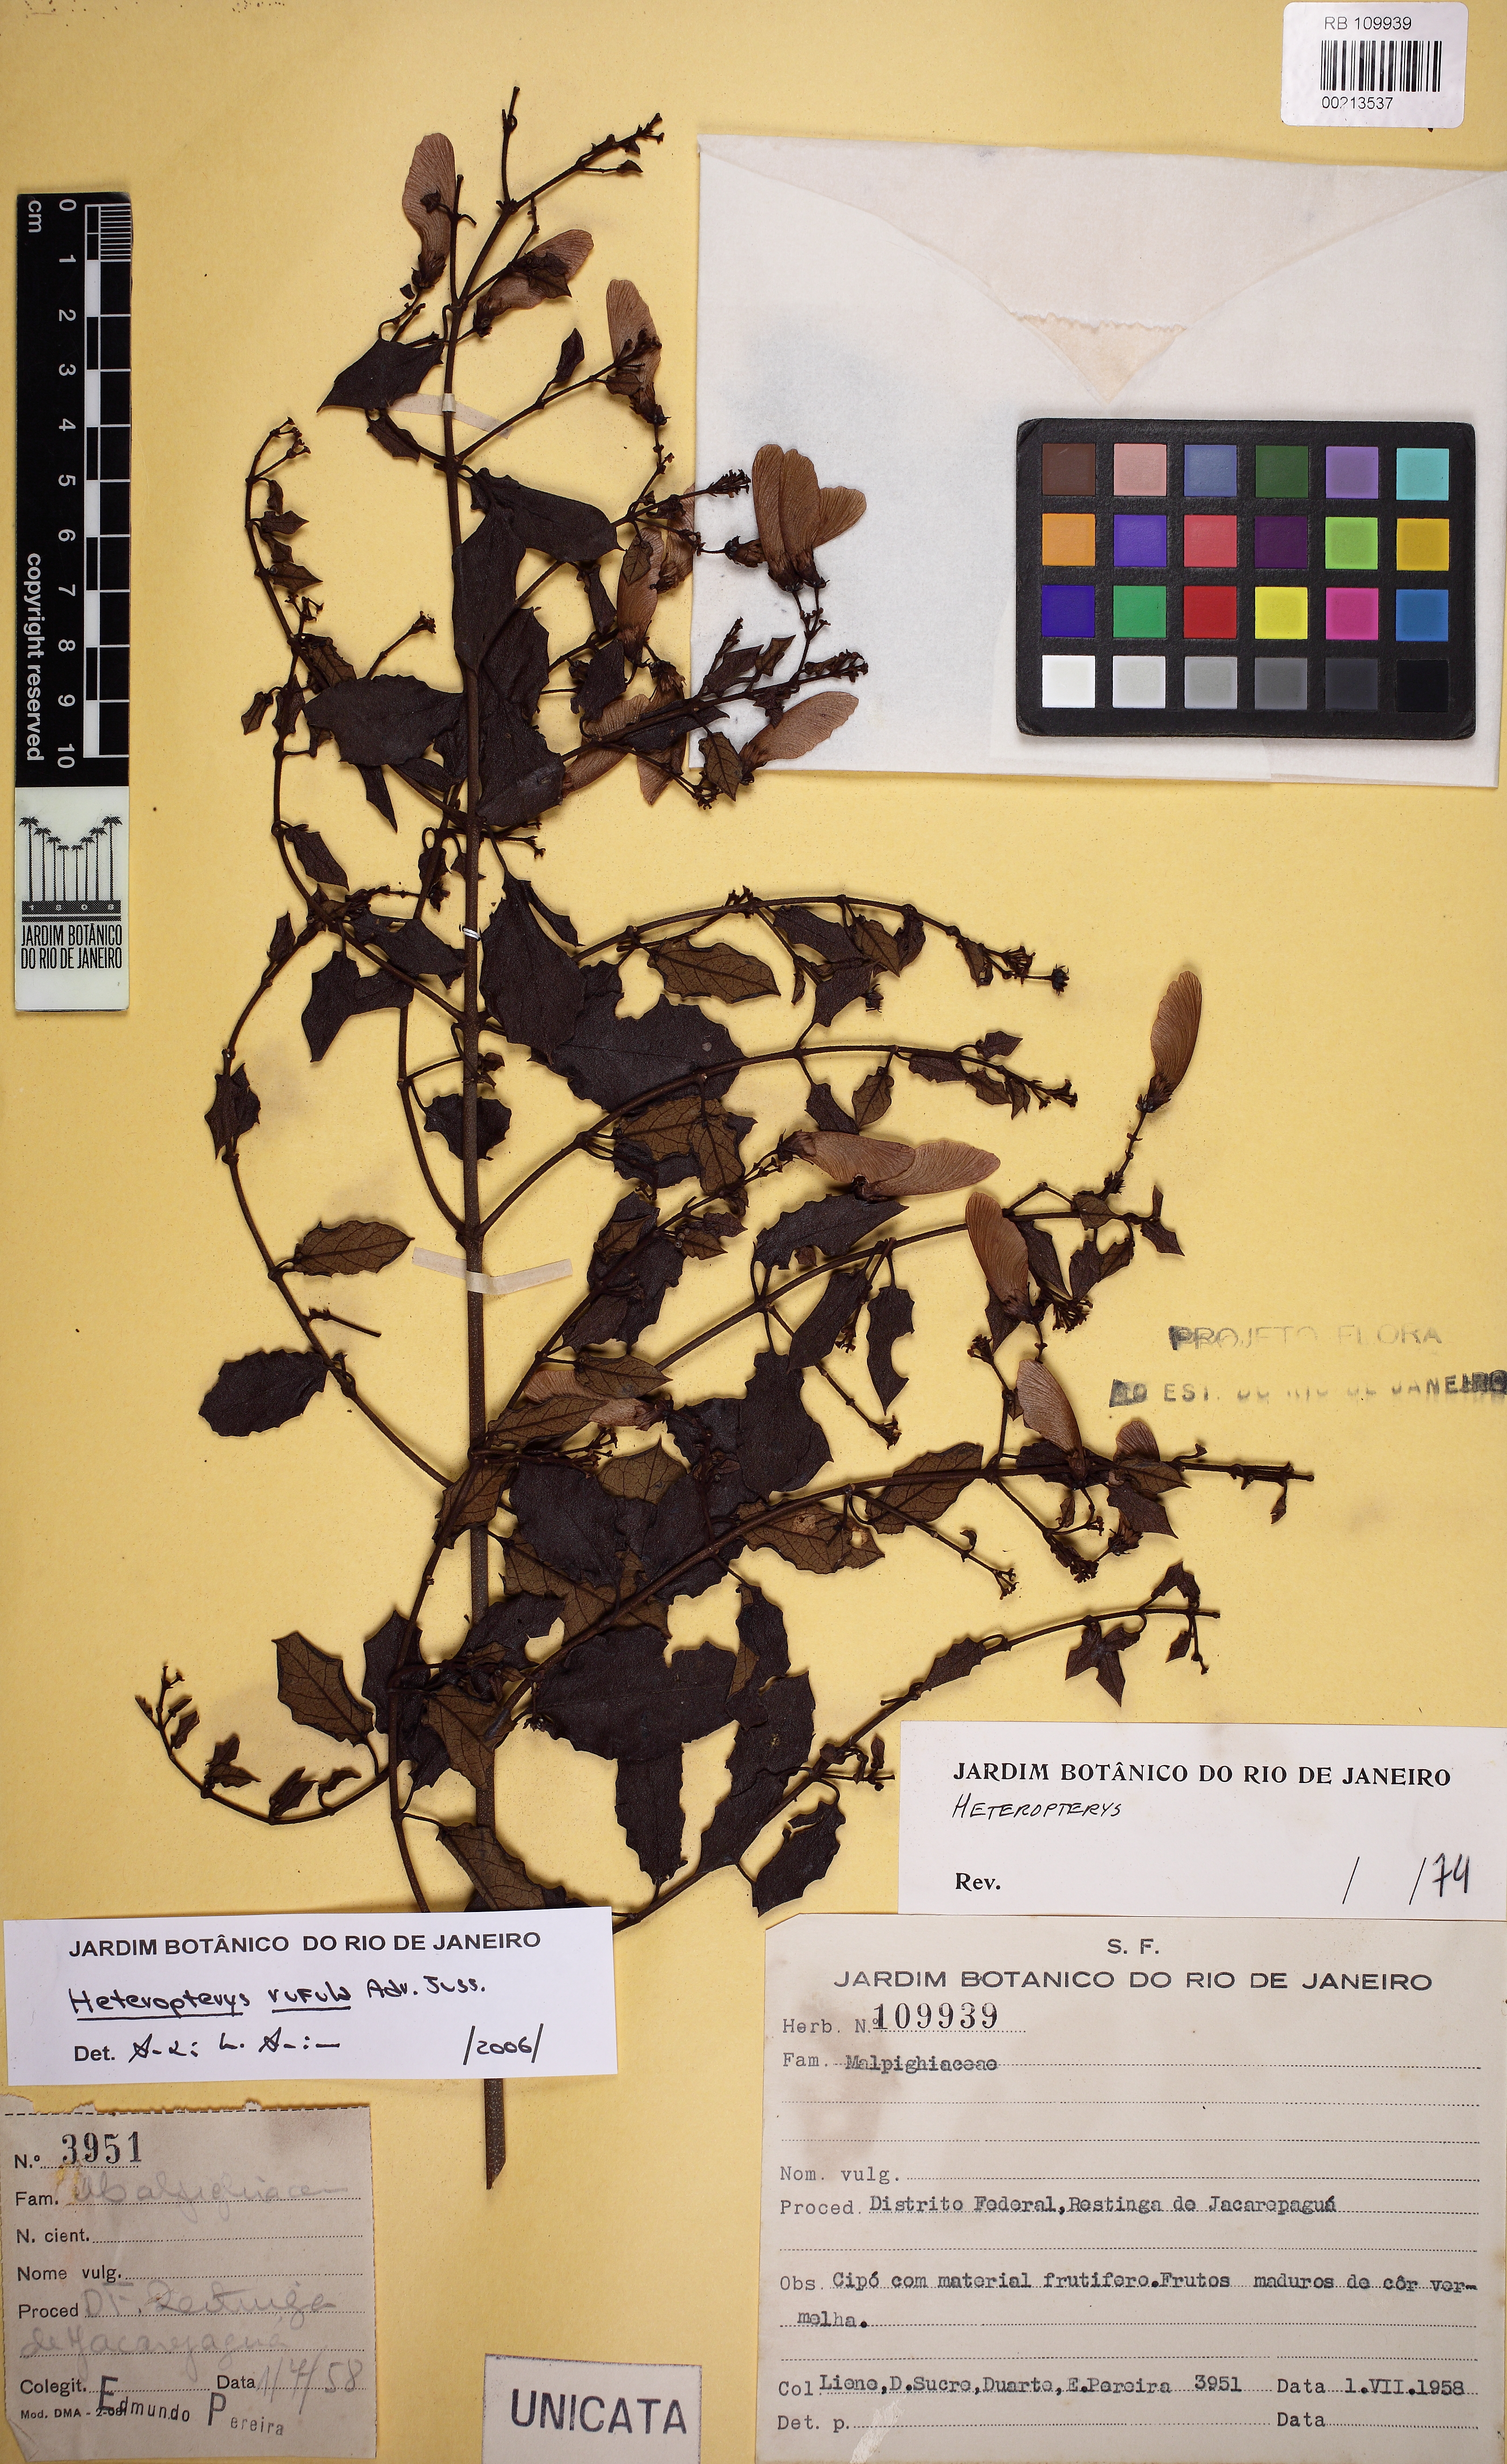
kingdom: Plantae
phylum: Tracheophyta
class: Magnoliopsida
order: Malpighiales
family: Malpighiaceae
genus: Heteropterys
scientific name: Heteropterys rufula
